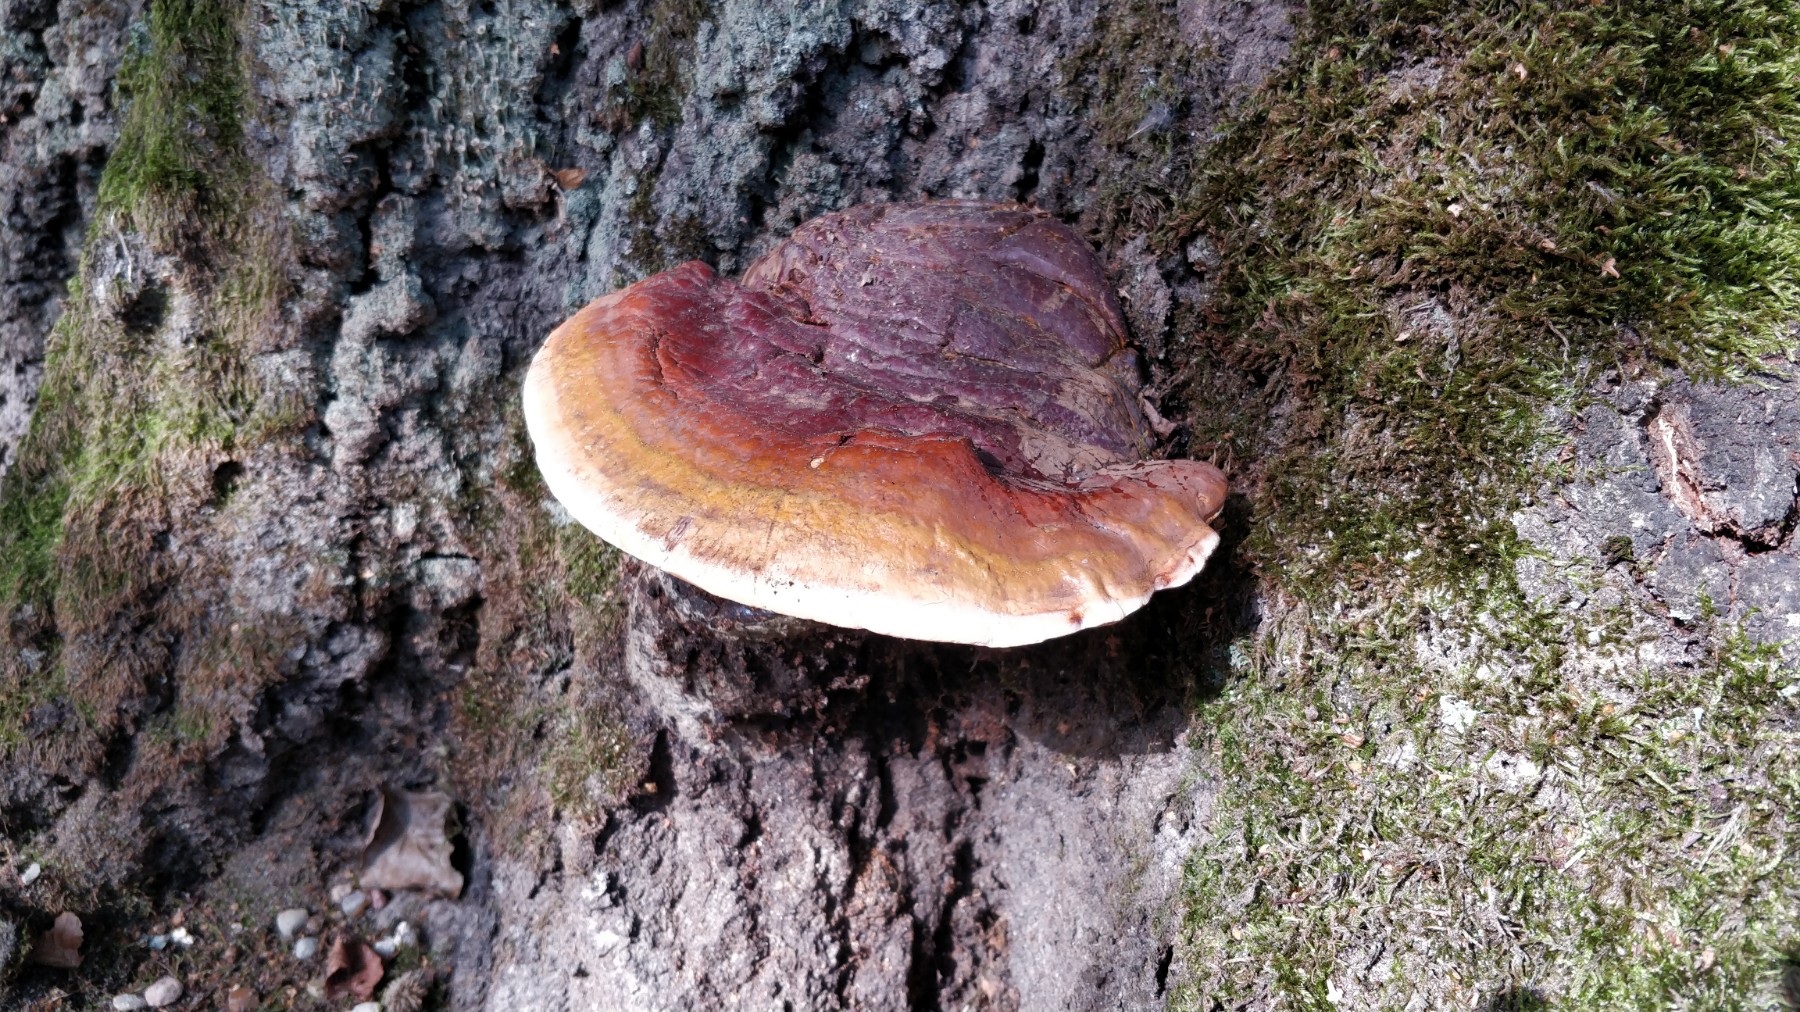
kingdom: Fungi
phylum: Basidiomycota
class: Agaricomycetes
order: Polyporales
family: Fomitopsidaceae
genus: Fomitopsis
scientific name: Fomitopsis pinicola
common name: randbæltet hovporesvamp
